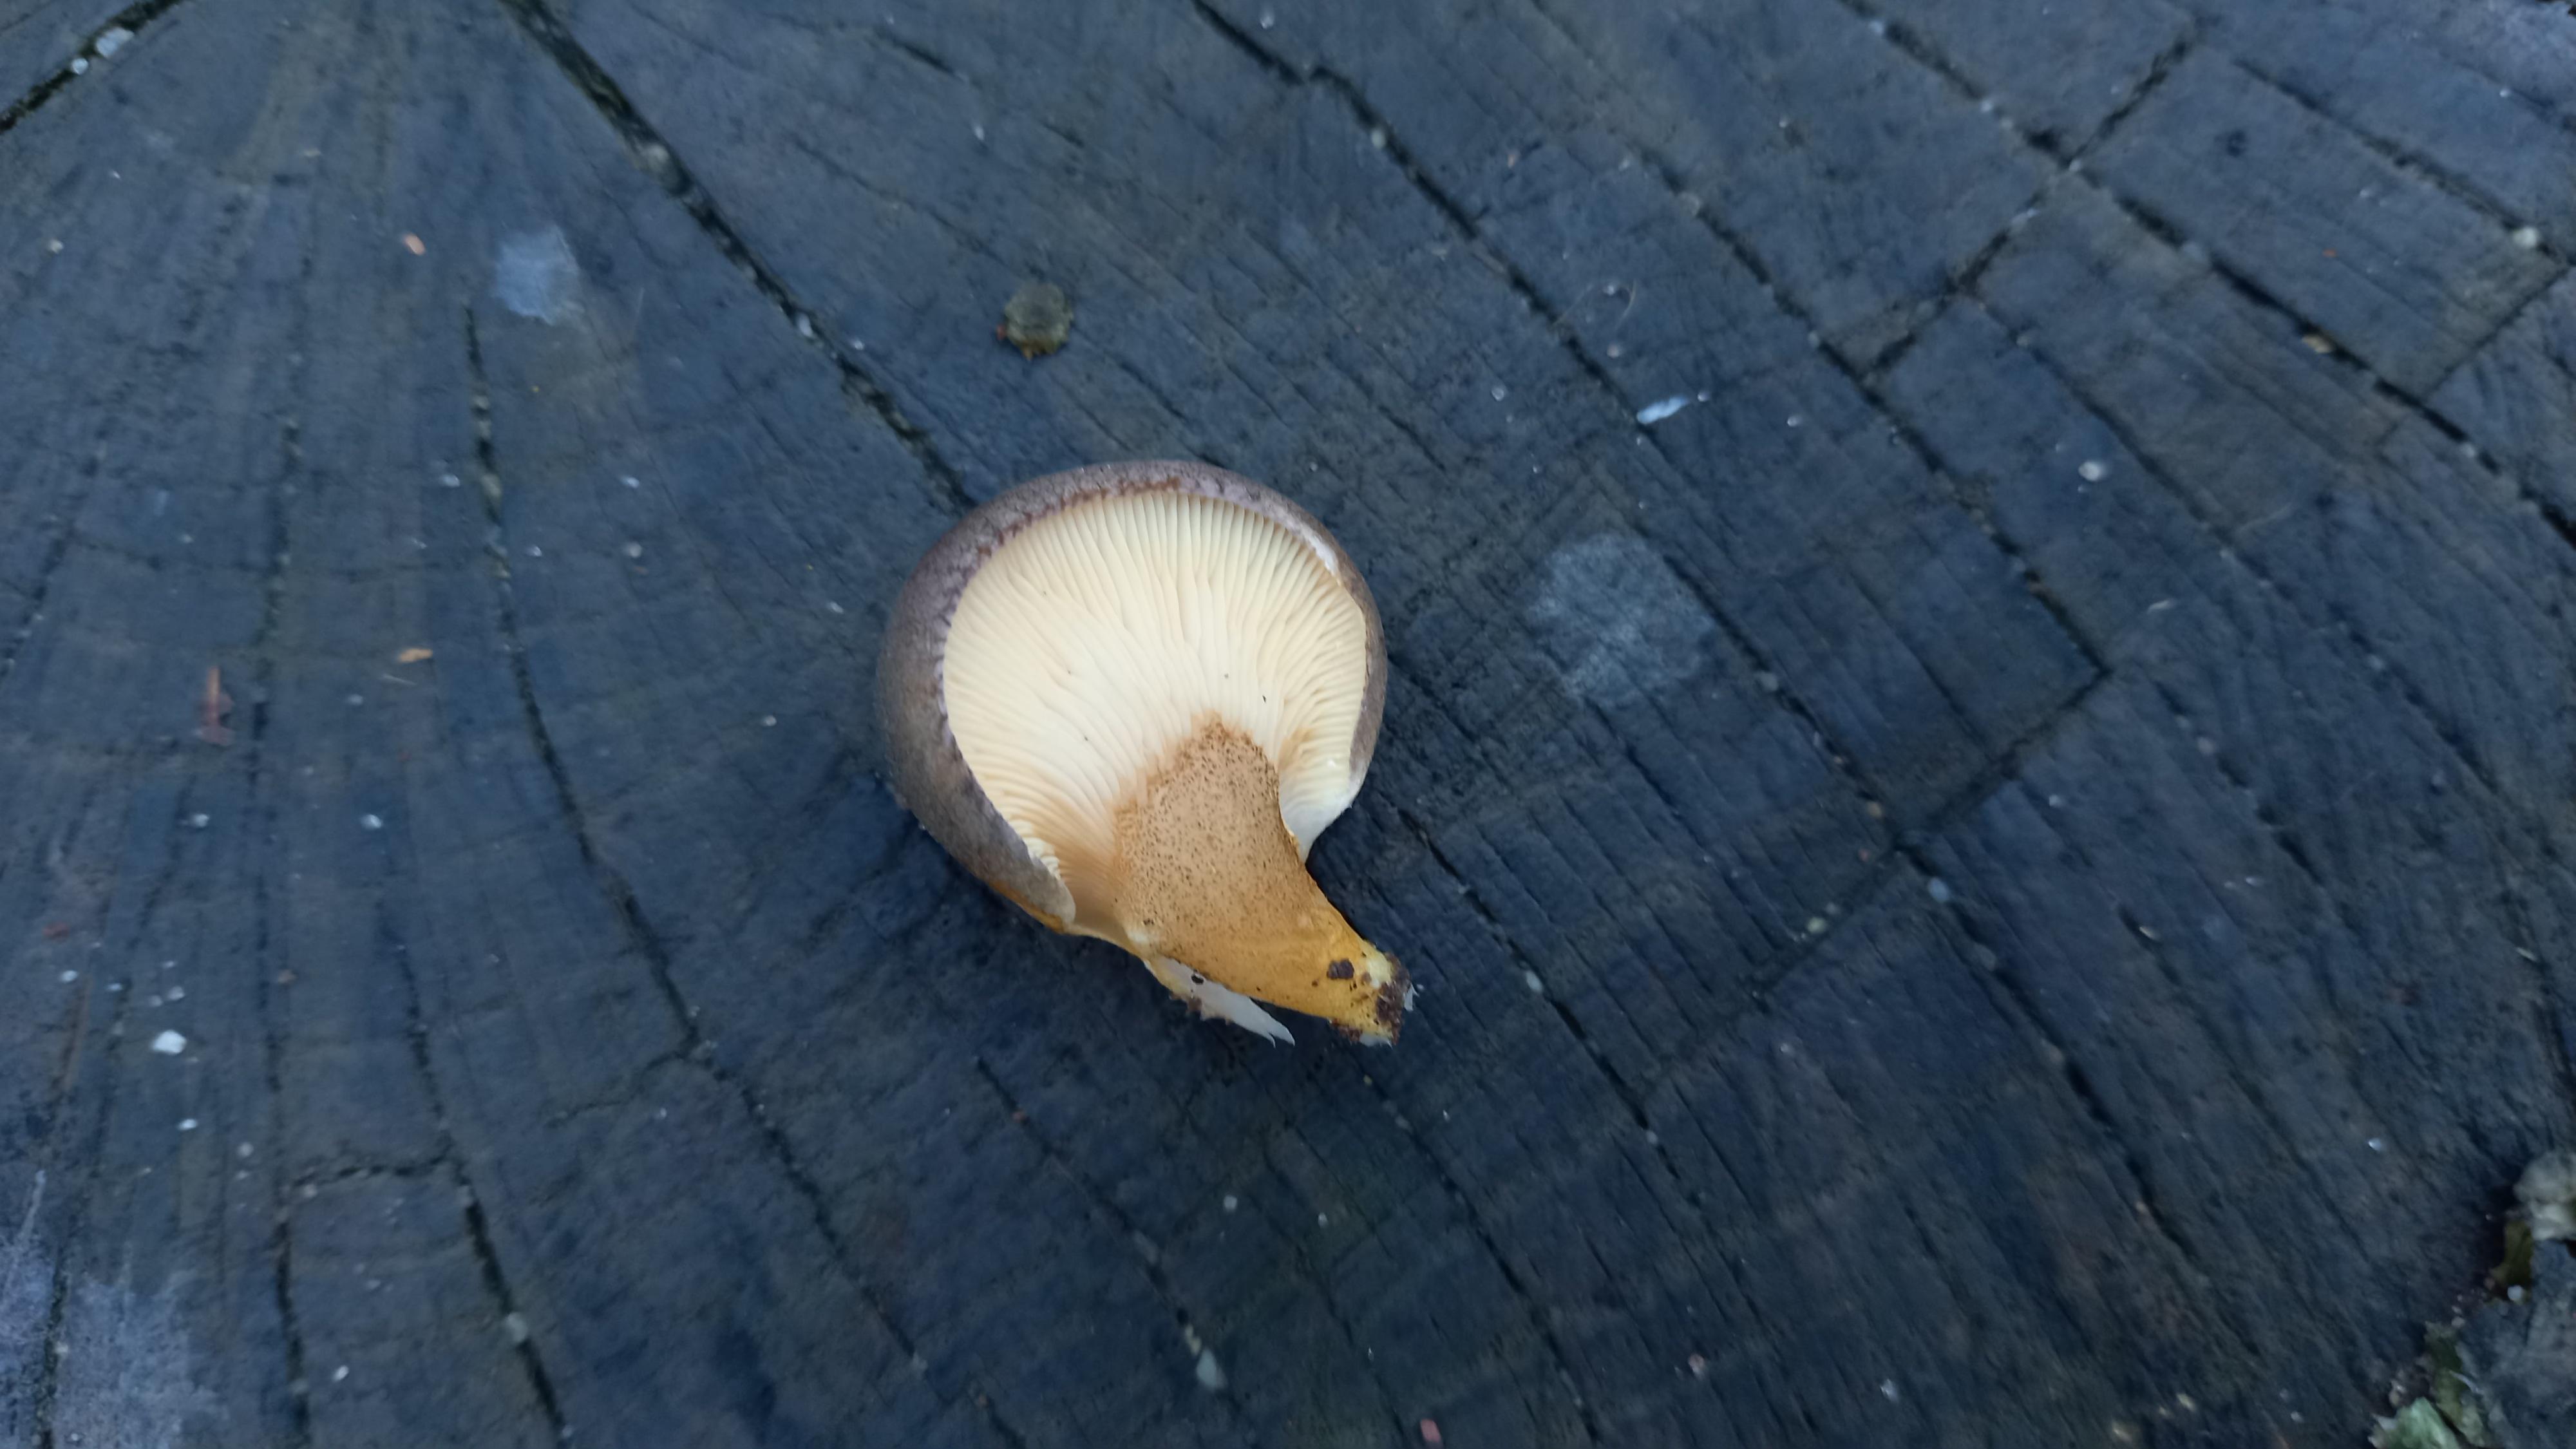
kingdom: Fungi
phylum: Basidiomycota
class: Agaricomycetes
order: Agaricales
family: Sarcomyxaceae
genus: Sarcomyxa
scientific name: Sarcomyxa serotina
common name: gummihat
